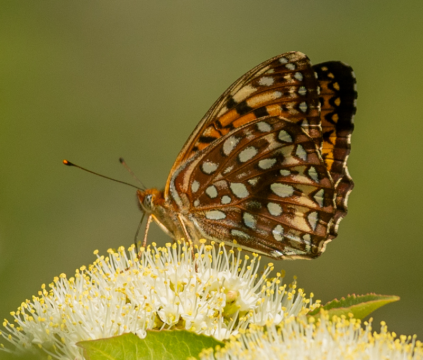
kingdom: Animalia
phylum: Arthropoda
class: Insecta
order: Lepidoptera
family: Nymphalidae
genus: Speyeria
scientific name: Speyeria atlantis
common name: Atlantis Fritillary
